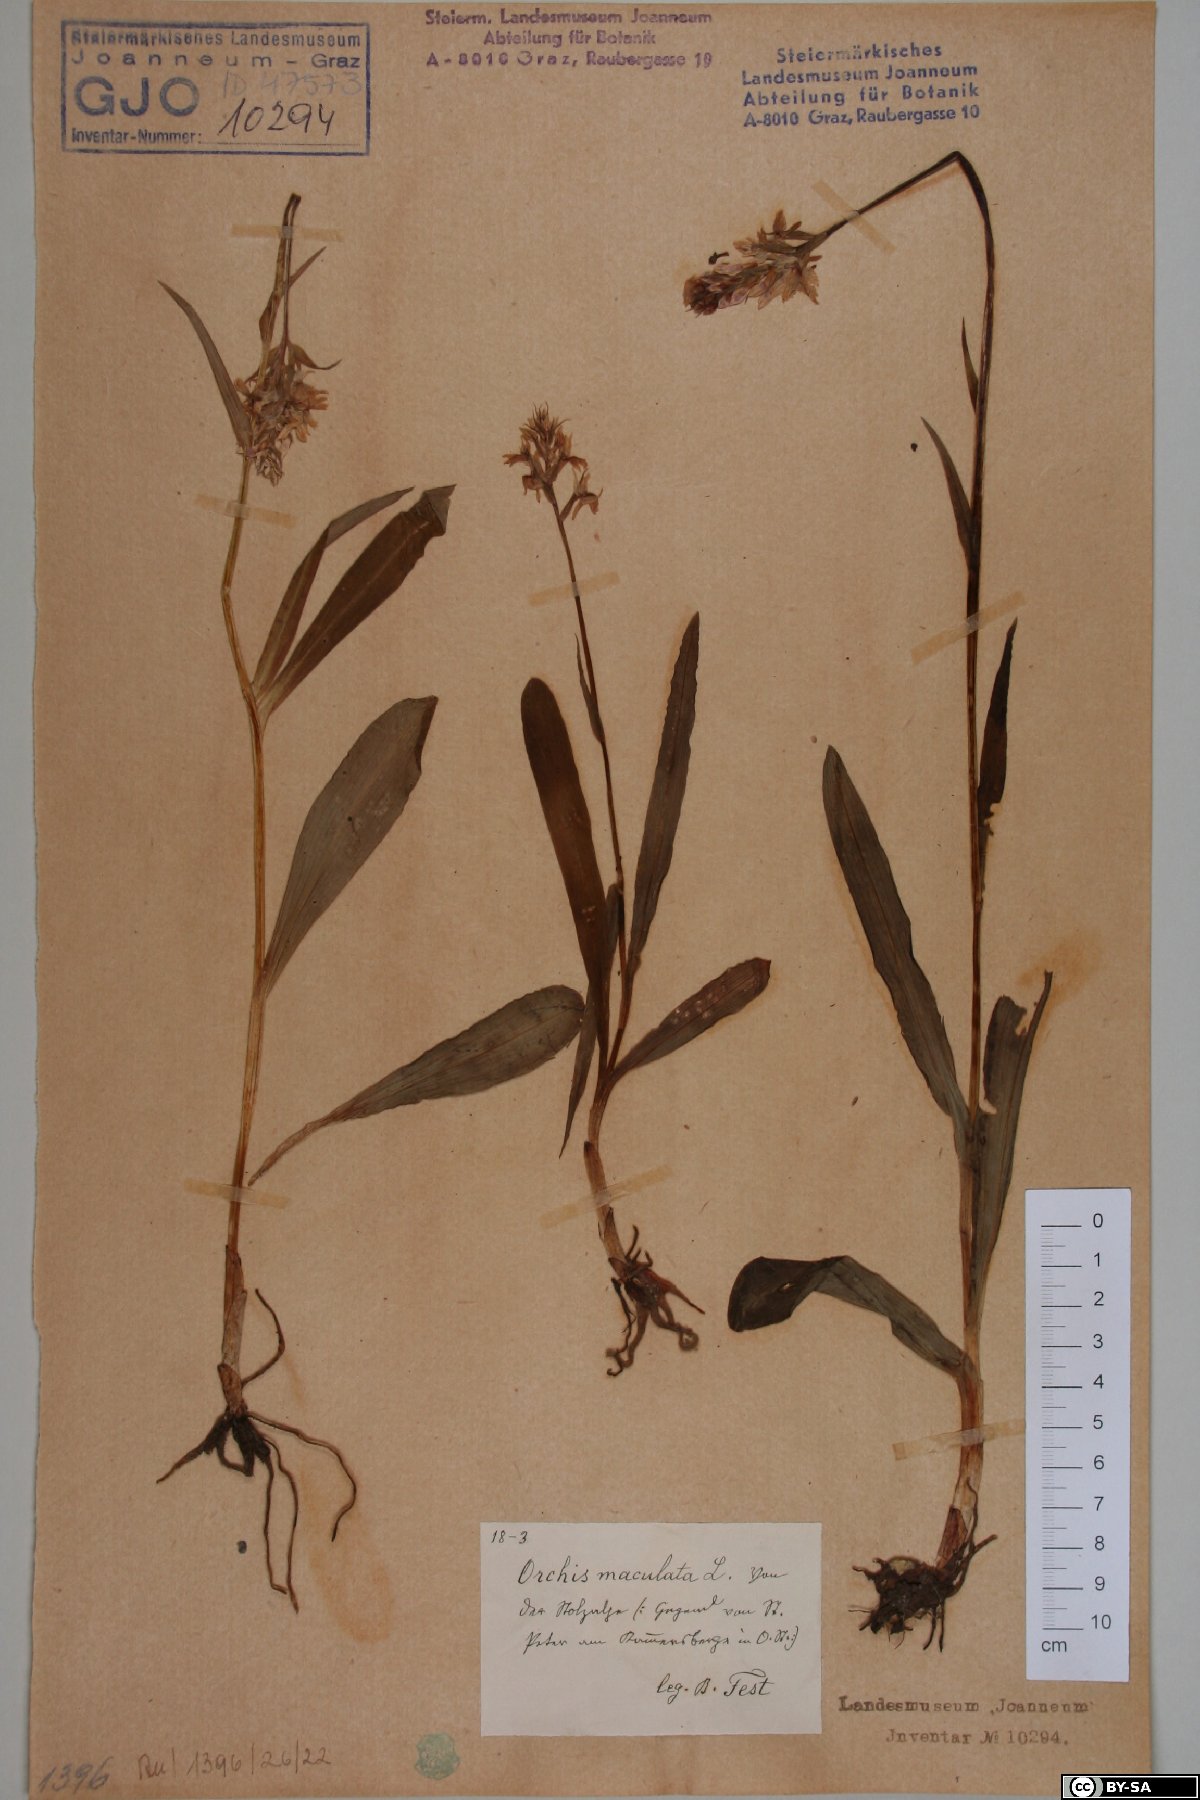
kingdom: Plantae
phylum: Tracheophyta
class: Liliopsida
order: Asparagales
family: Orchidaceae
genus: Dactylorhiza
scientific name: Dactylorhiza maculata
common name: Heath spotted-orchid
